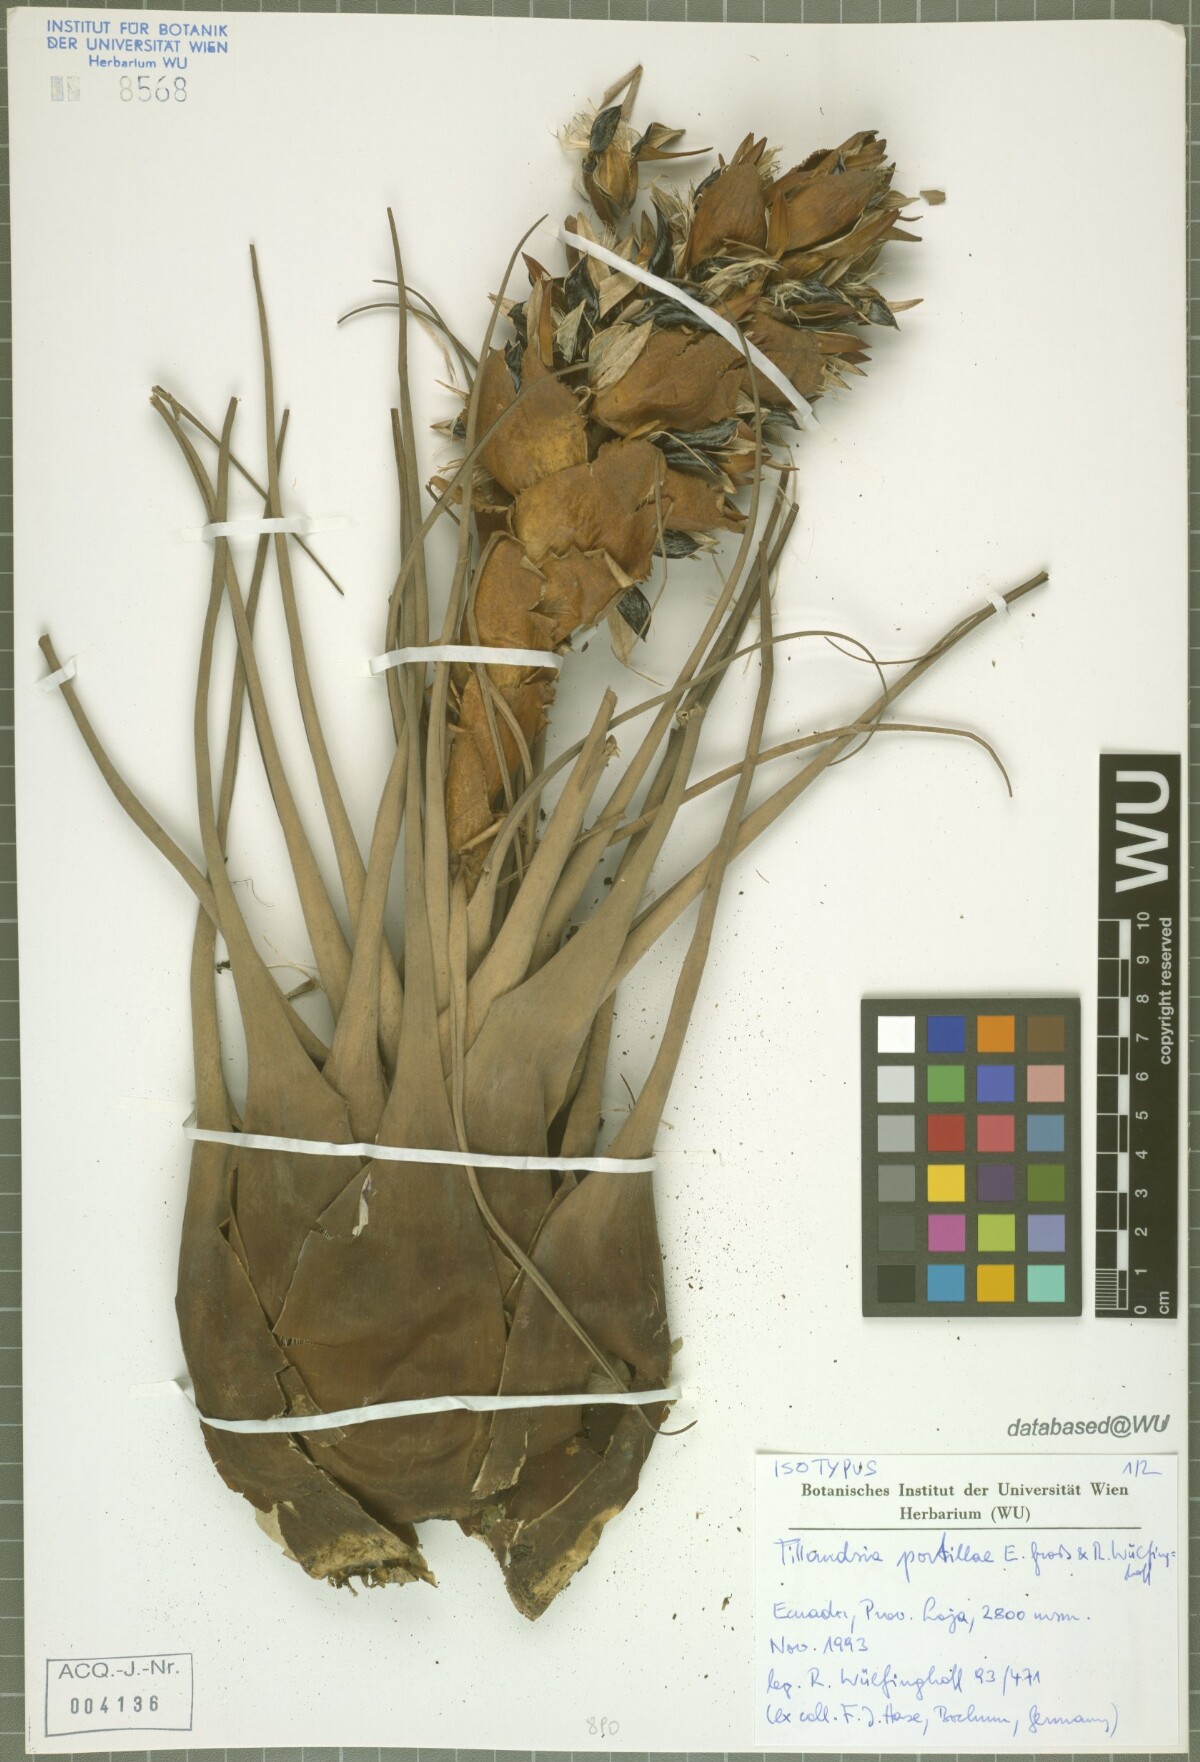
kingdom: Plantae
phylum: Tracheophyta
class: Liliopsida
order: Poales
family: Bromeliaceae
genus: Tillandsia
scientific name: Tillandsia portillae
